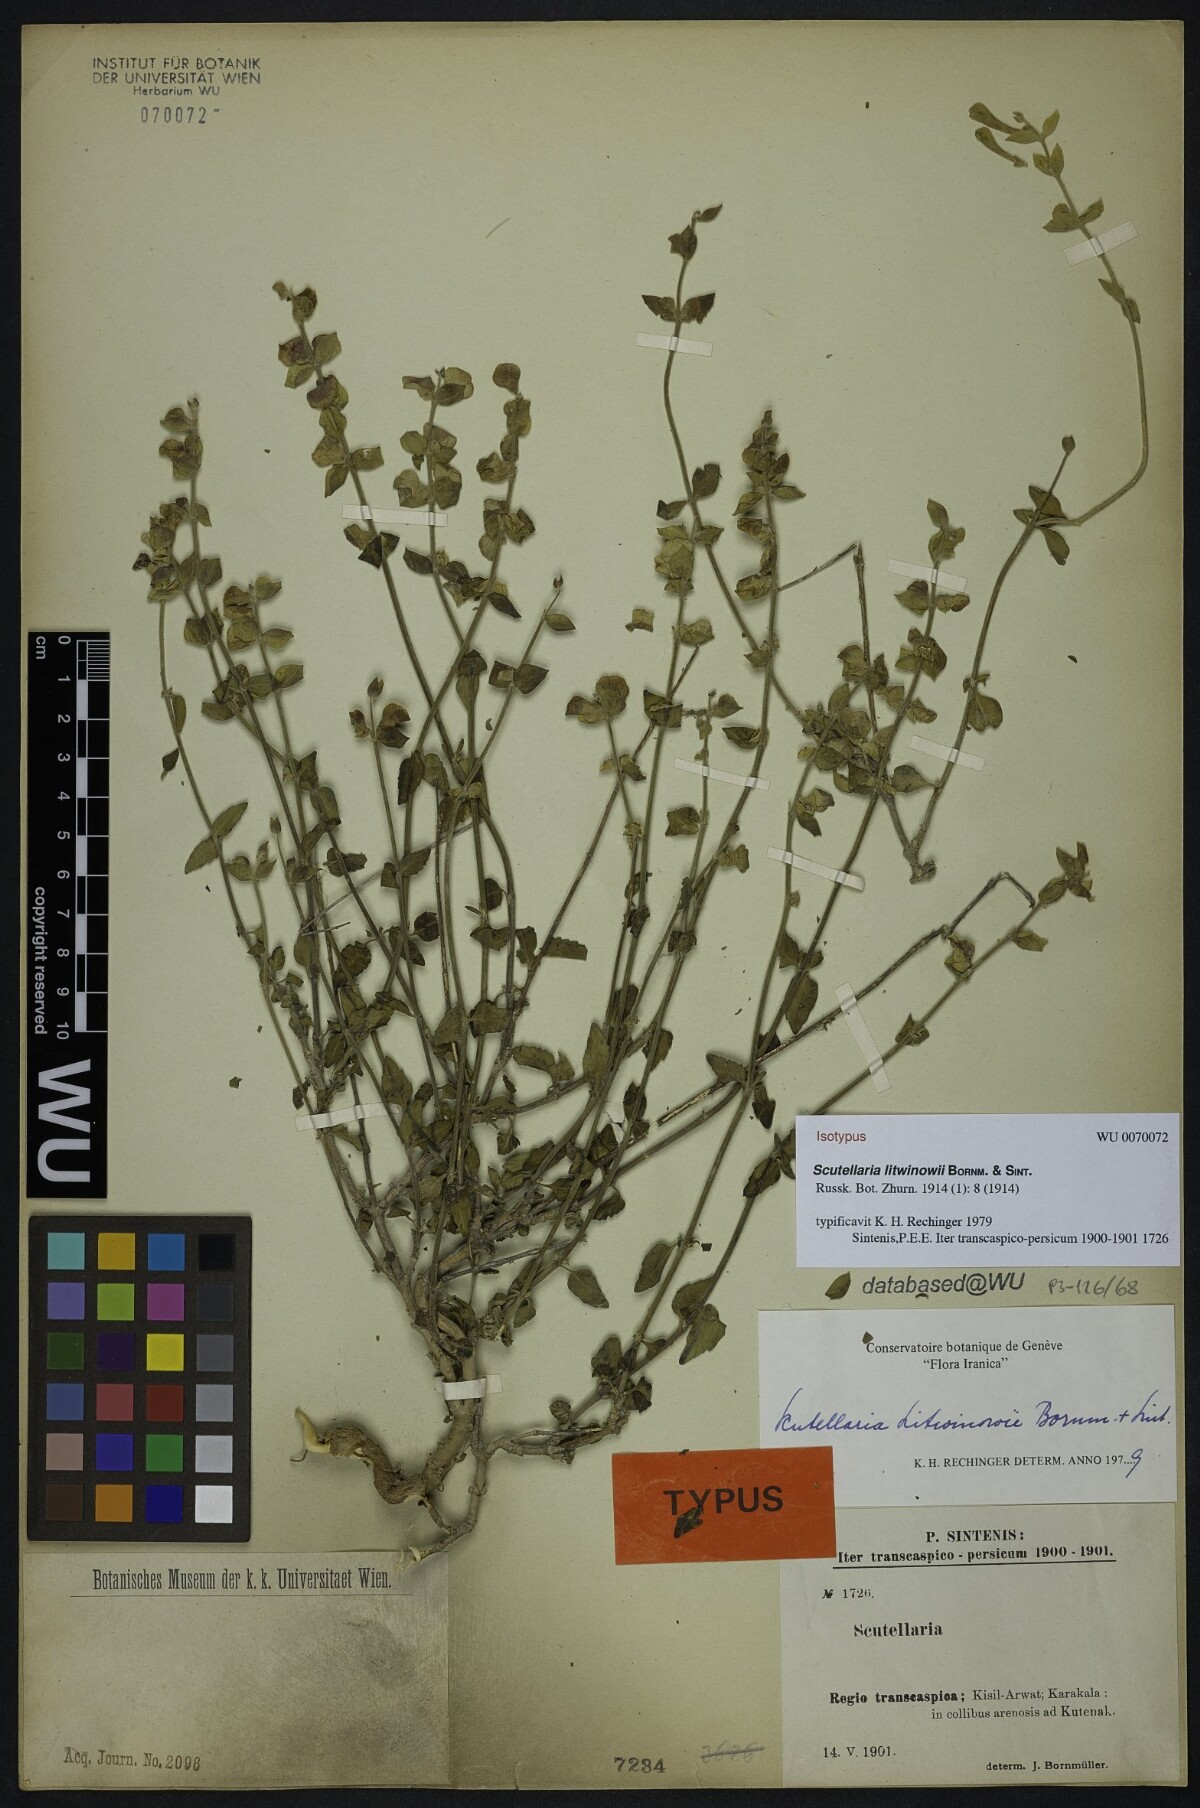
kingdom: Plantae
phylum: Tracheophyta
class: Magnoliopsida
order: Lamiales
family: Lamiaceae
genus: Scutellaria
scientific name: Scutellaria litwinowii
